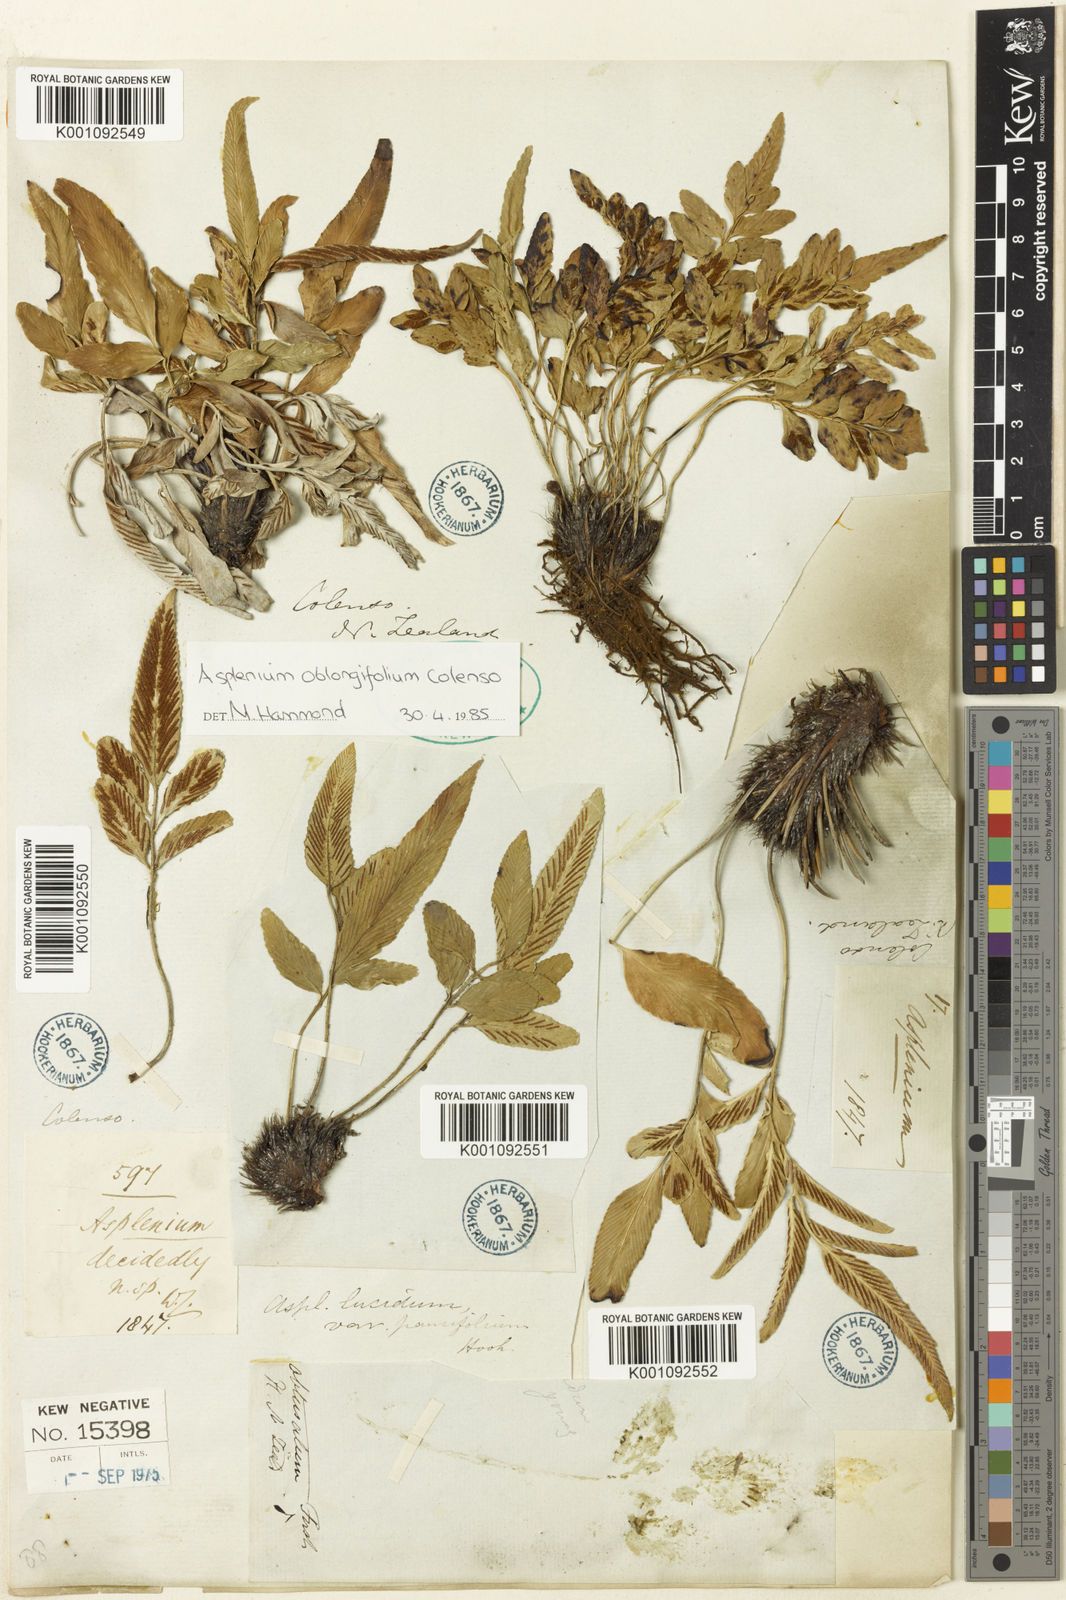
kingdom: Plantae
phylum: Tracheophyta
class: Polypodiopsida
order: Polypodiales
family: Aspleniaceae
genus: Asplenium
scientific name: Asplenium oblongifolium
